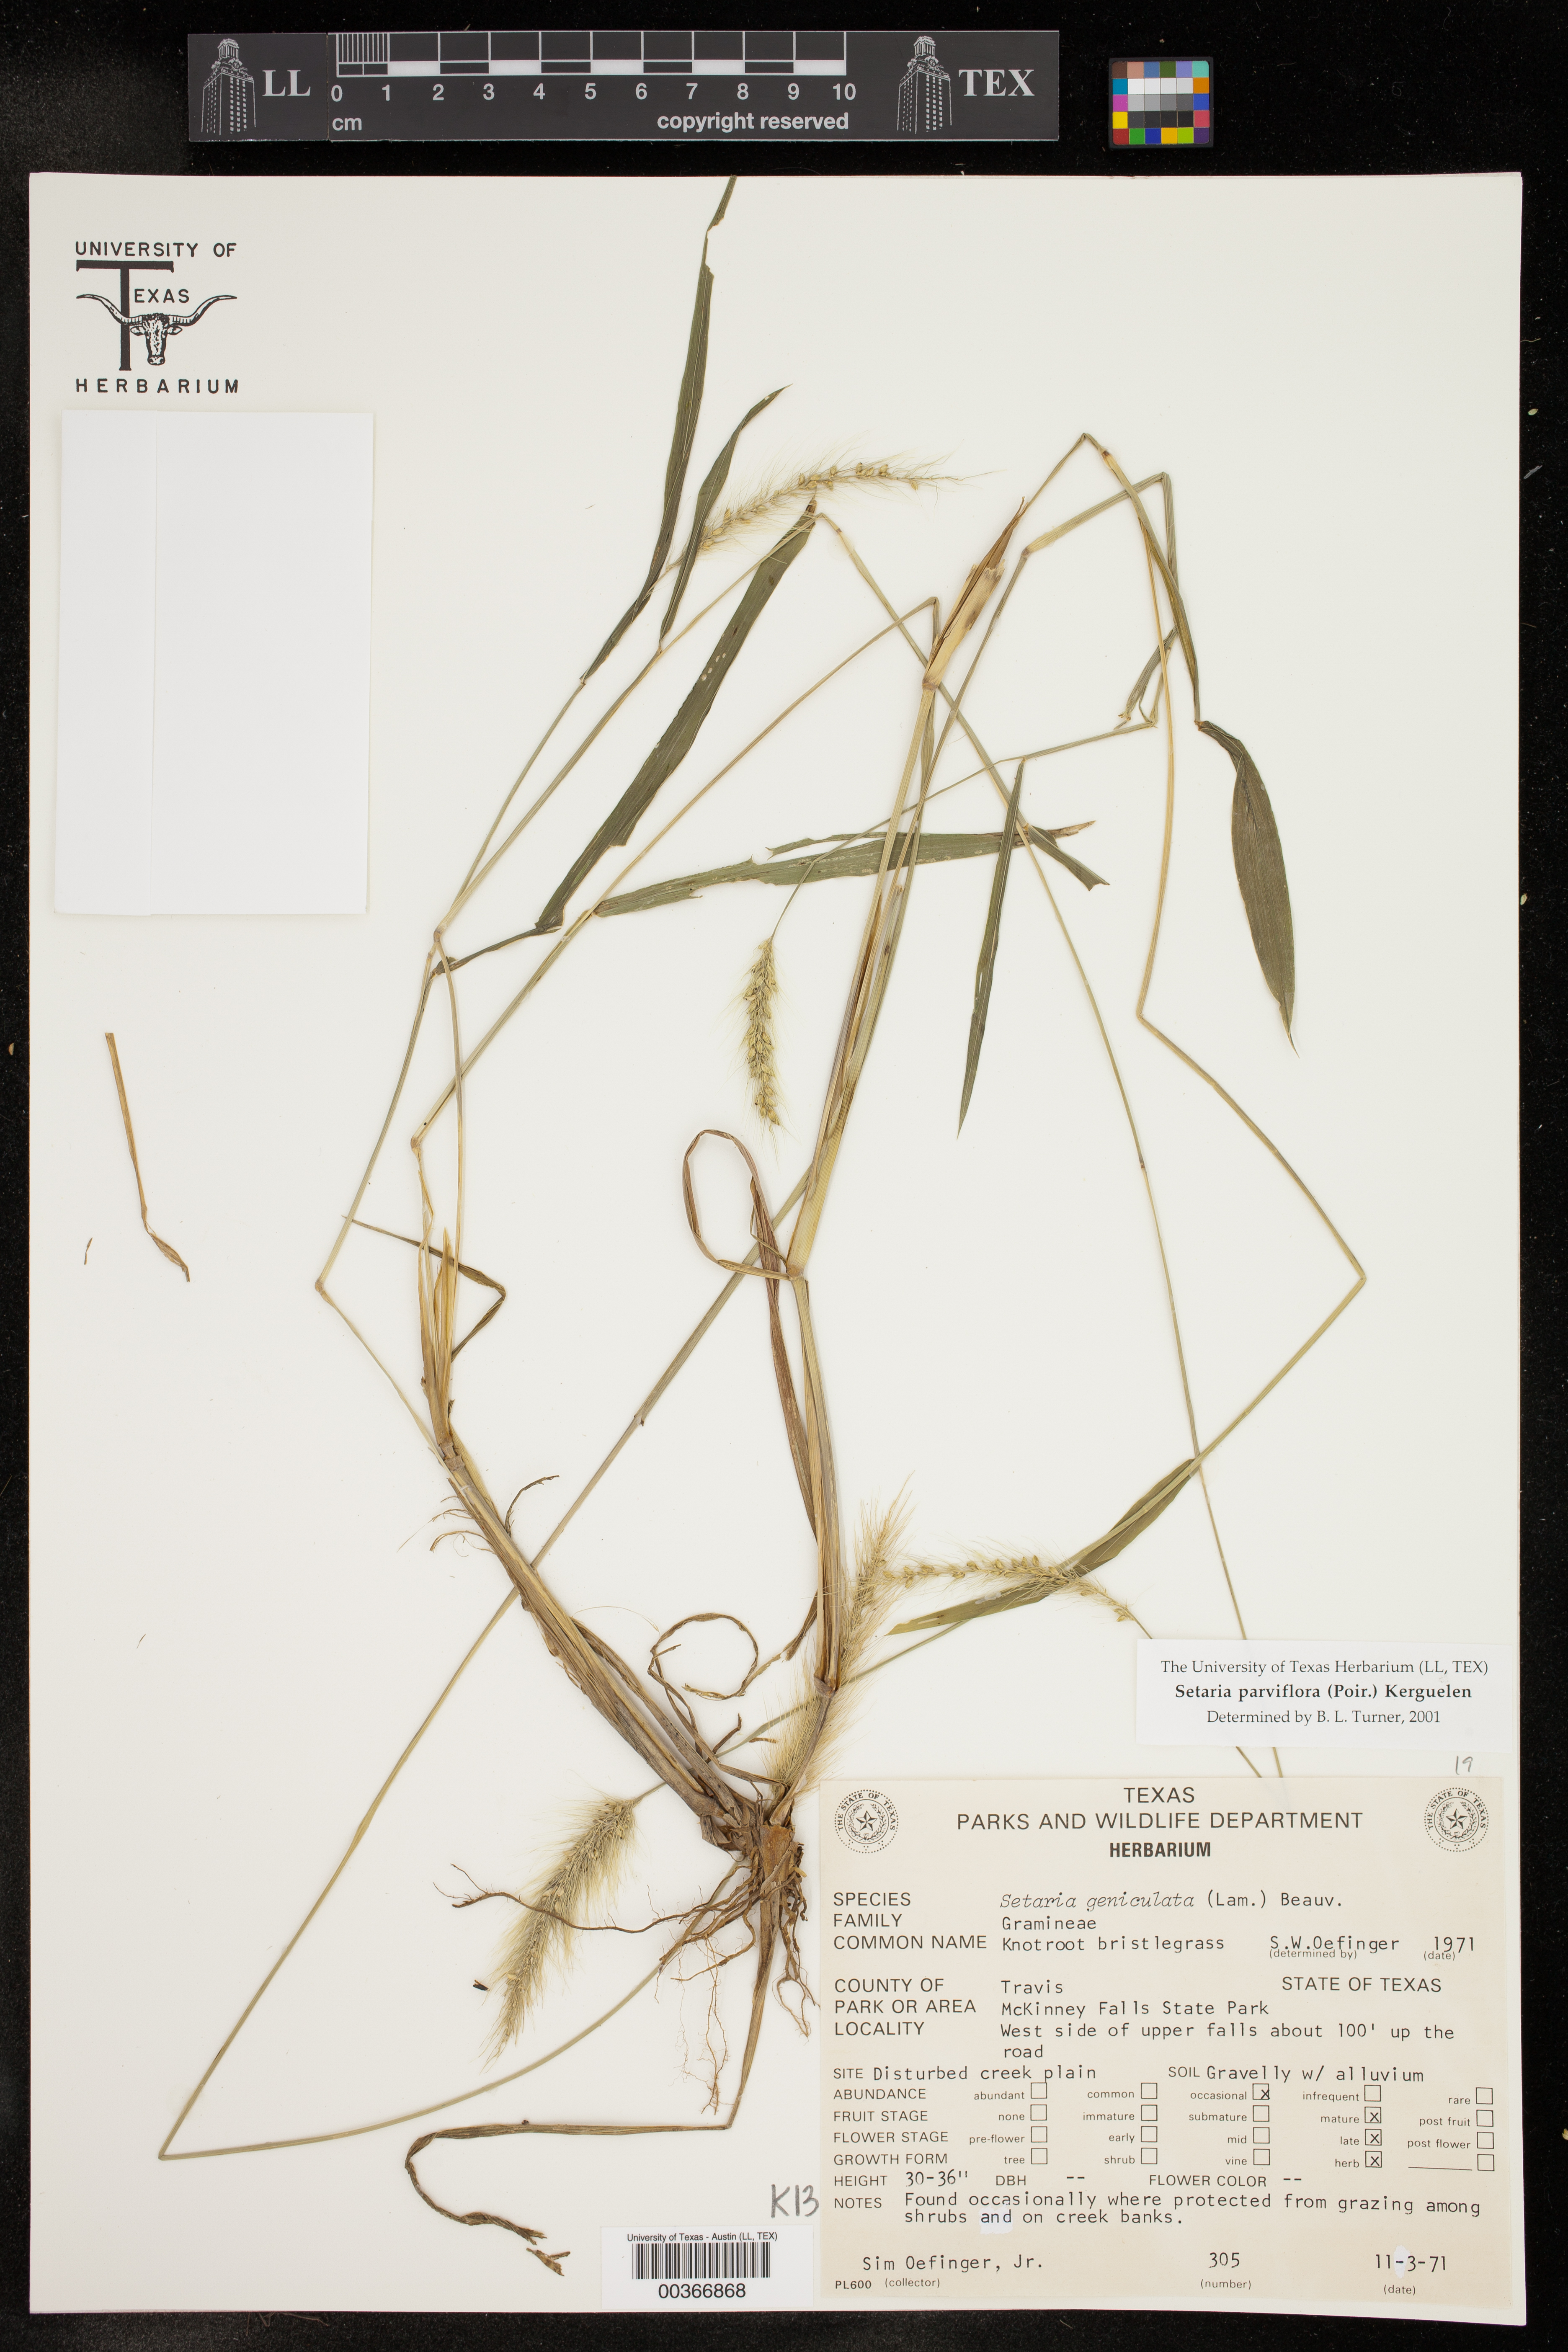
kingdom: Plantae
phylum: Tracheophyta
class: Liliopsida
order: Poales
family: Poaceae
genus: Setaria
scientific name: Setaria parviflora
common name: Knotroot bristle-grass
